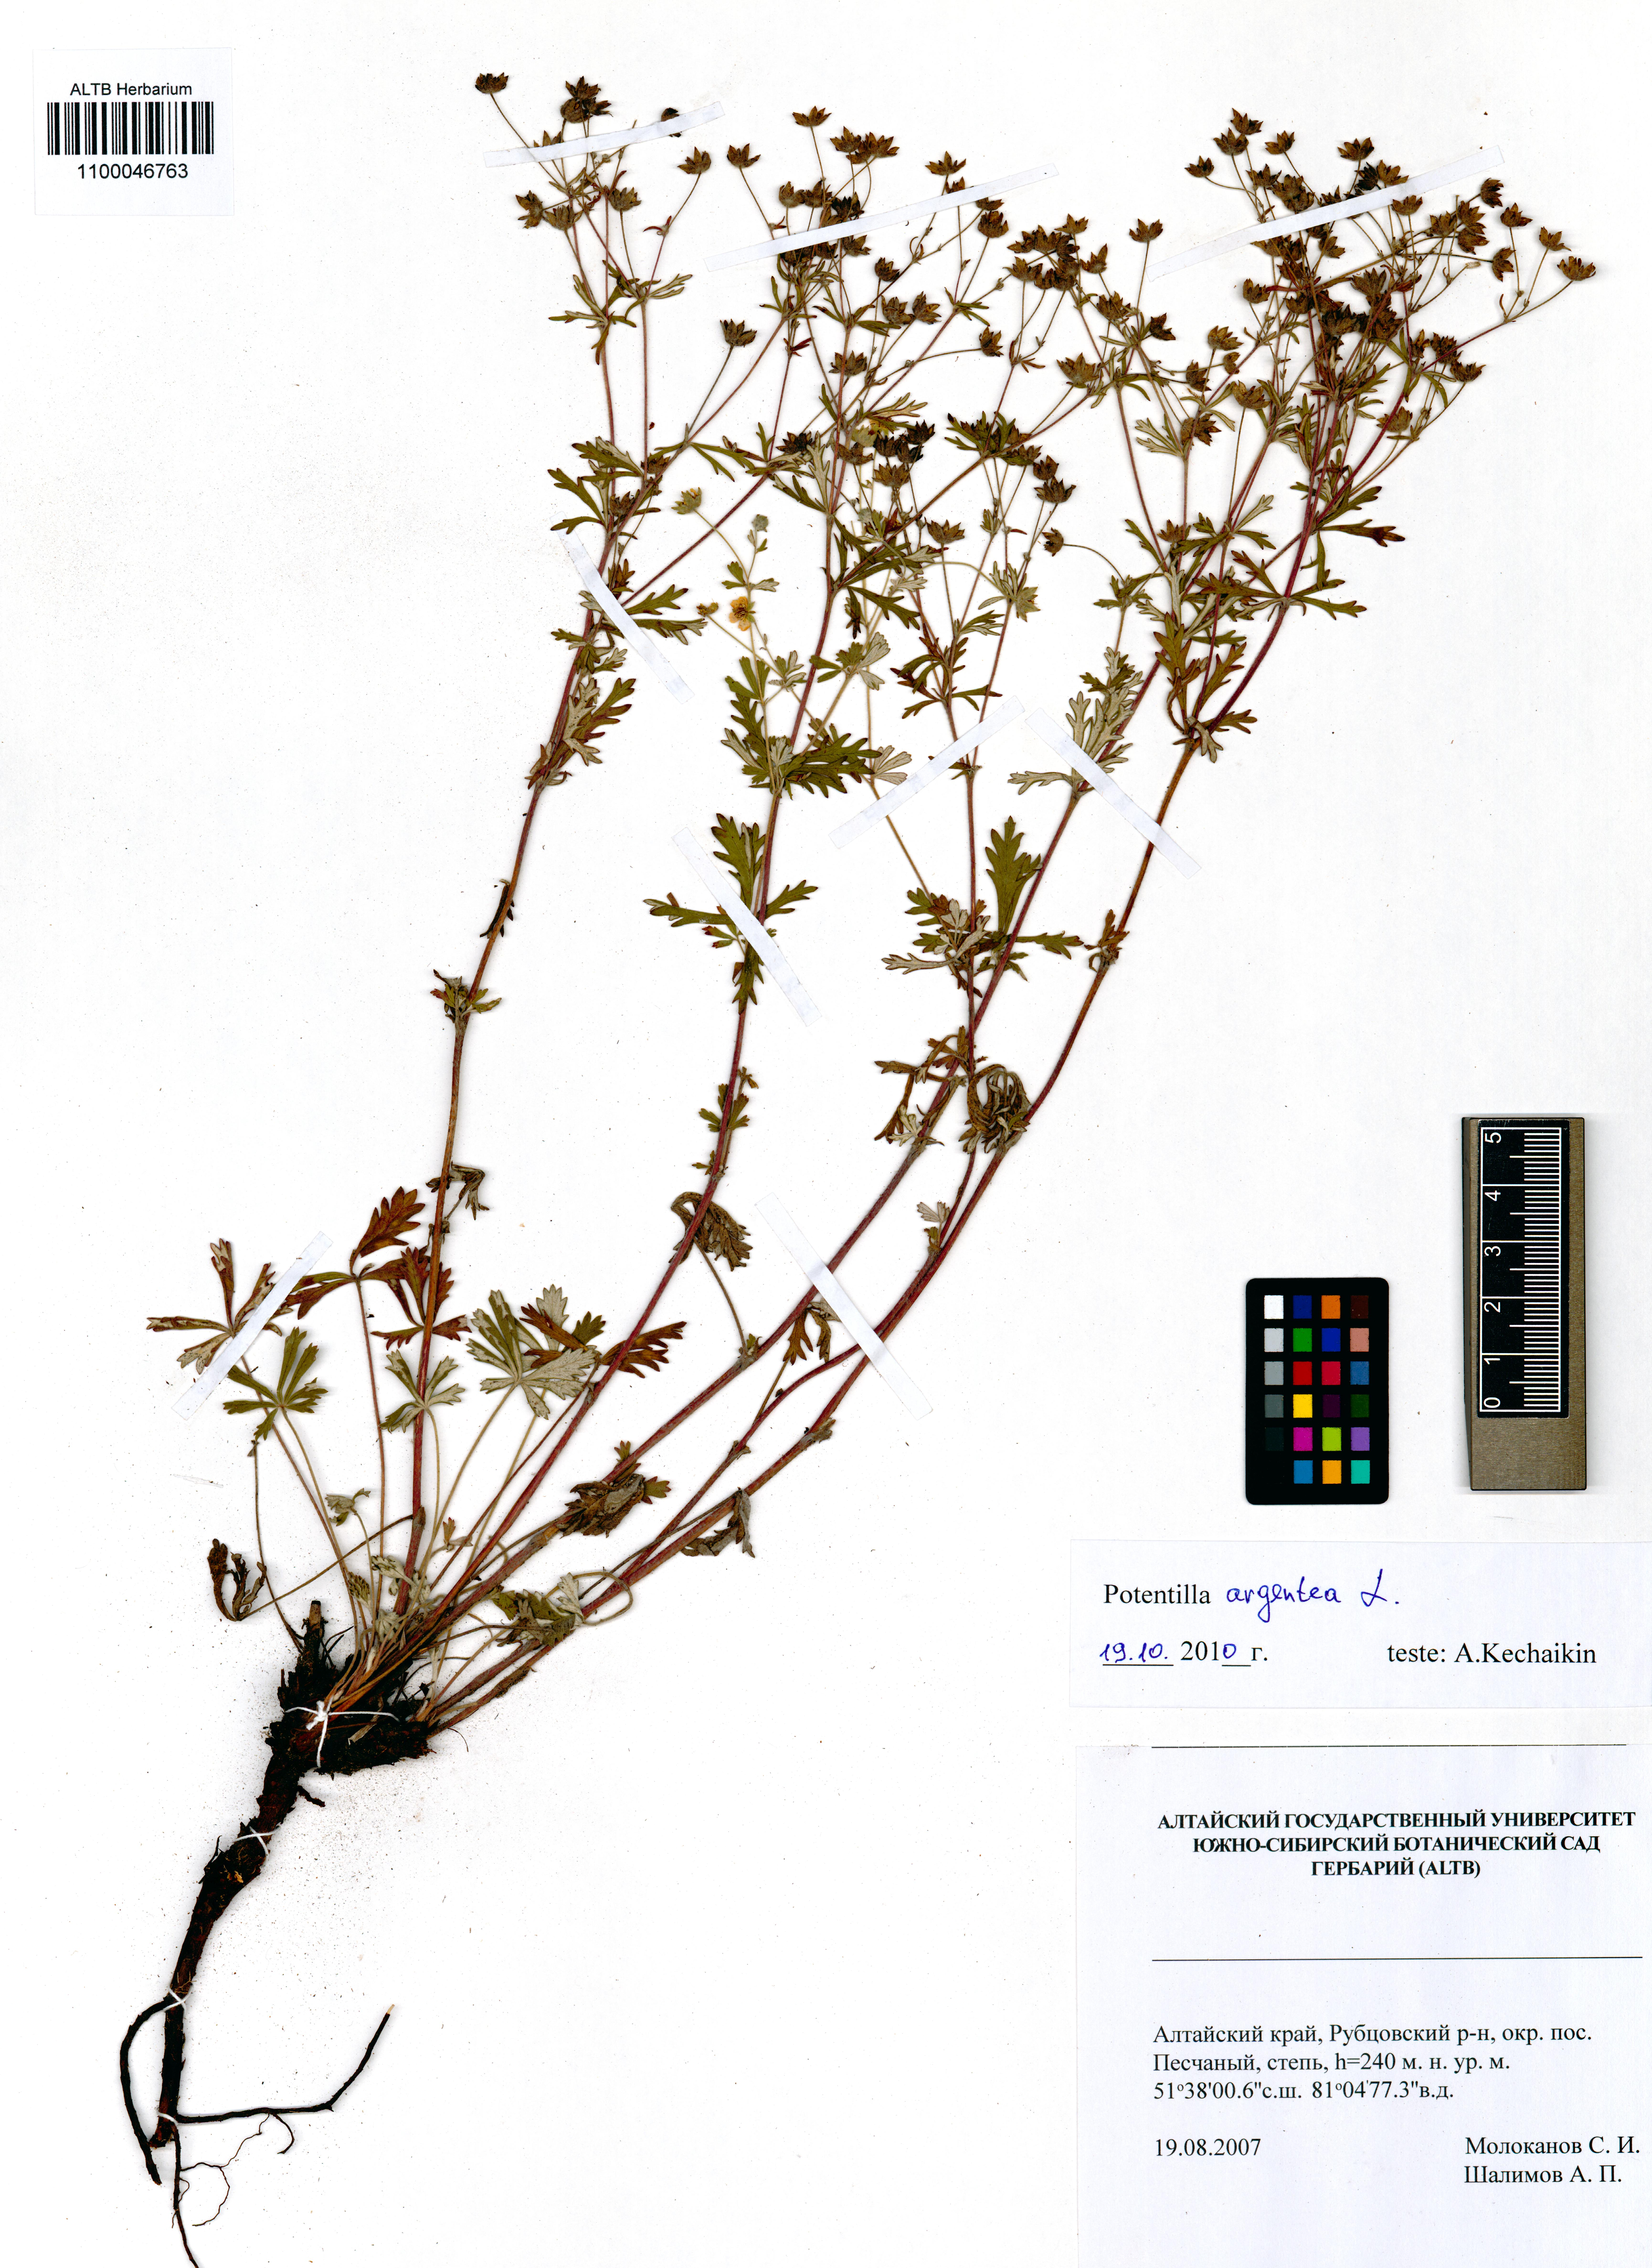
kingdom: Plantae
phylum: Tracheophyta
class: Magnoliopsida
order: Rosales
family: Rosaceae
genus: Potentilla
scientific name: Potentilla argentea
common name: Hoary cinquefoil
